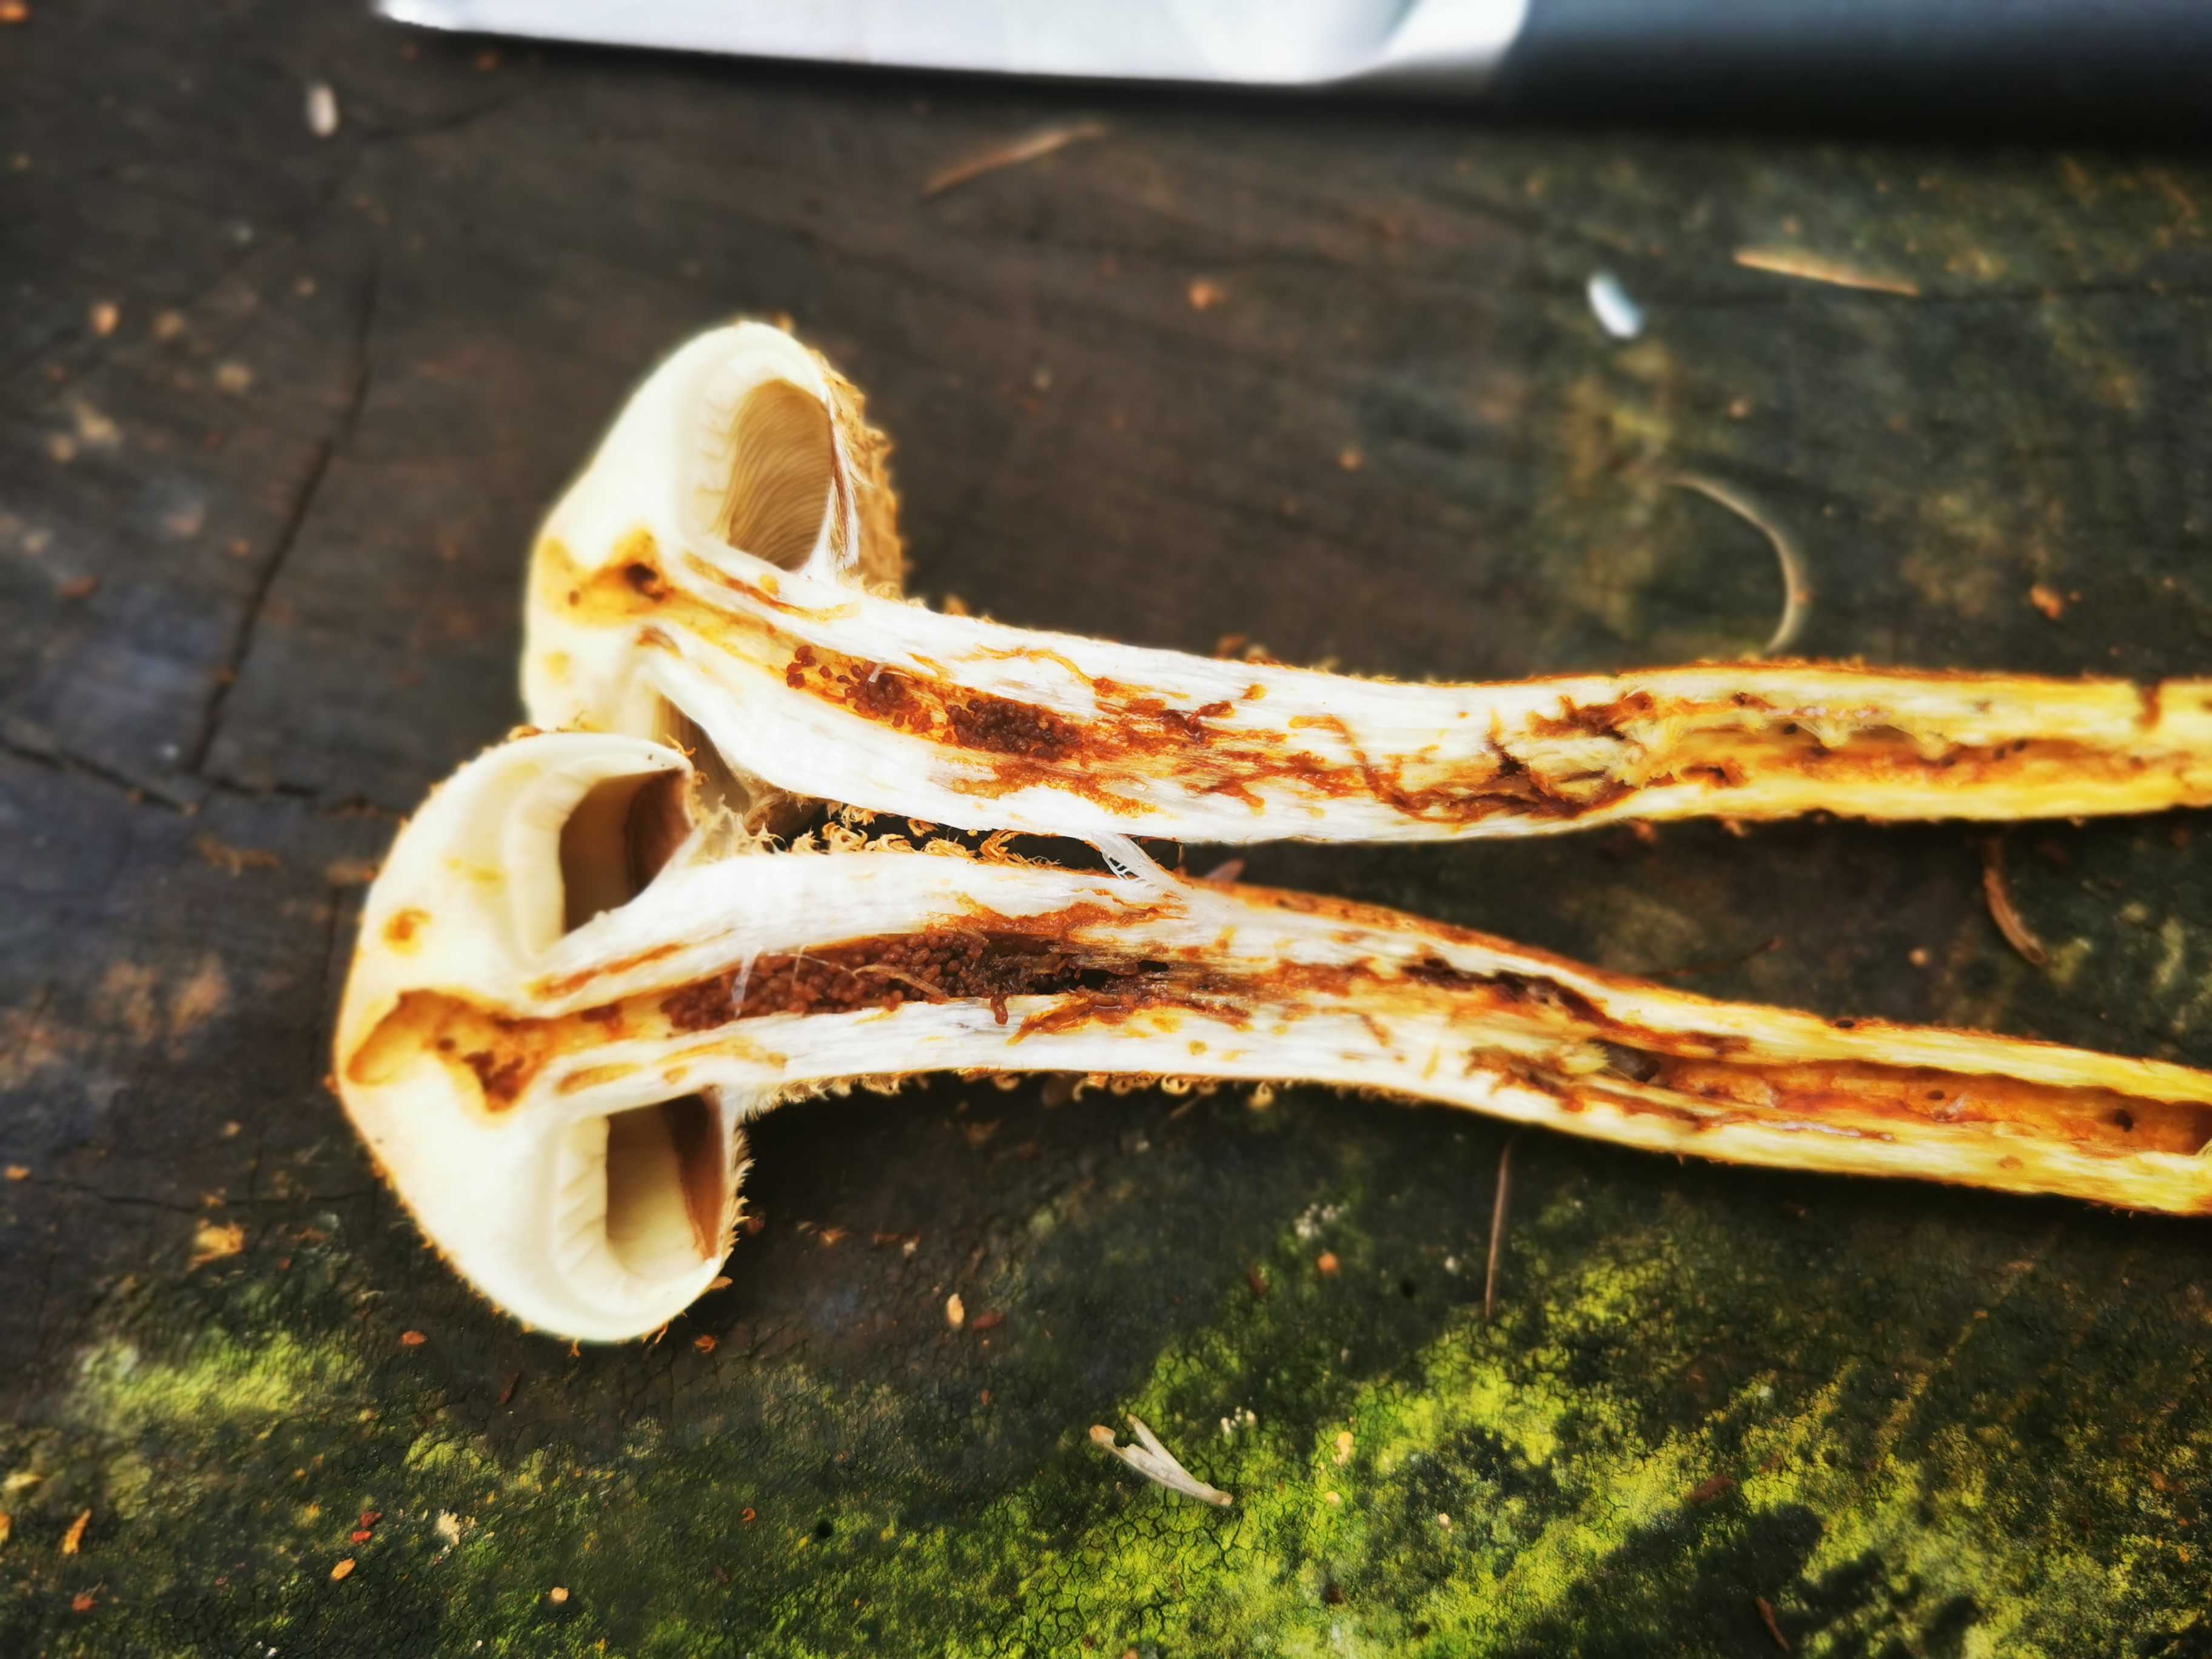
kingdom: Fungi
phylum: Basidiomycota
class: Agaricomycetes
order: Agaricales
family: Strophariaceae
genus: Pholiota
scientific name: Pholiota squarrosa
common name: krumskællet skælhat
